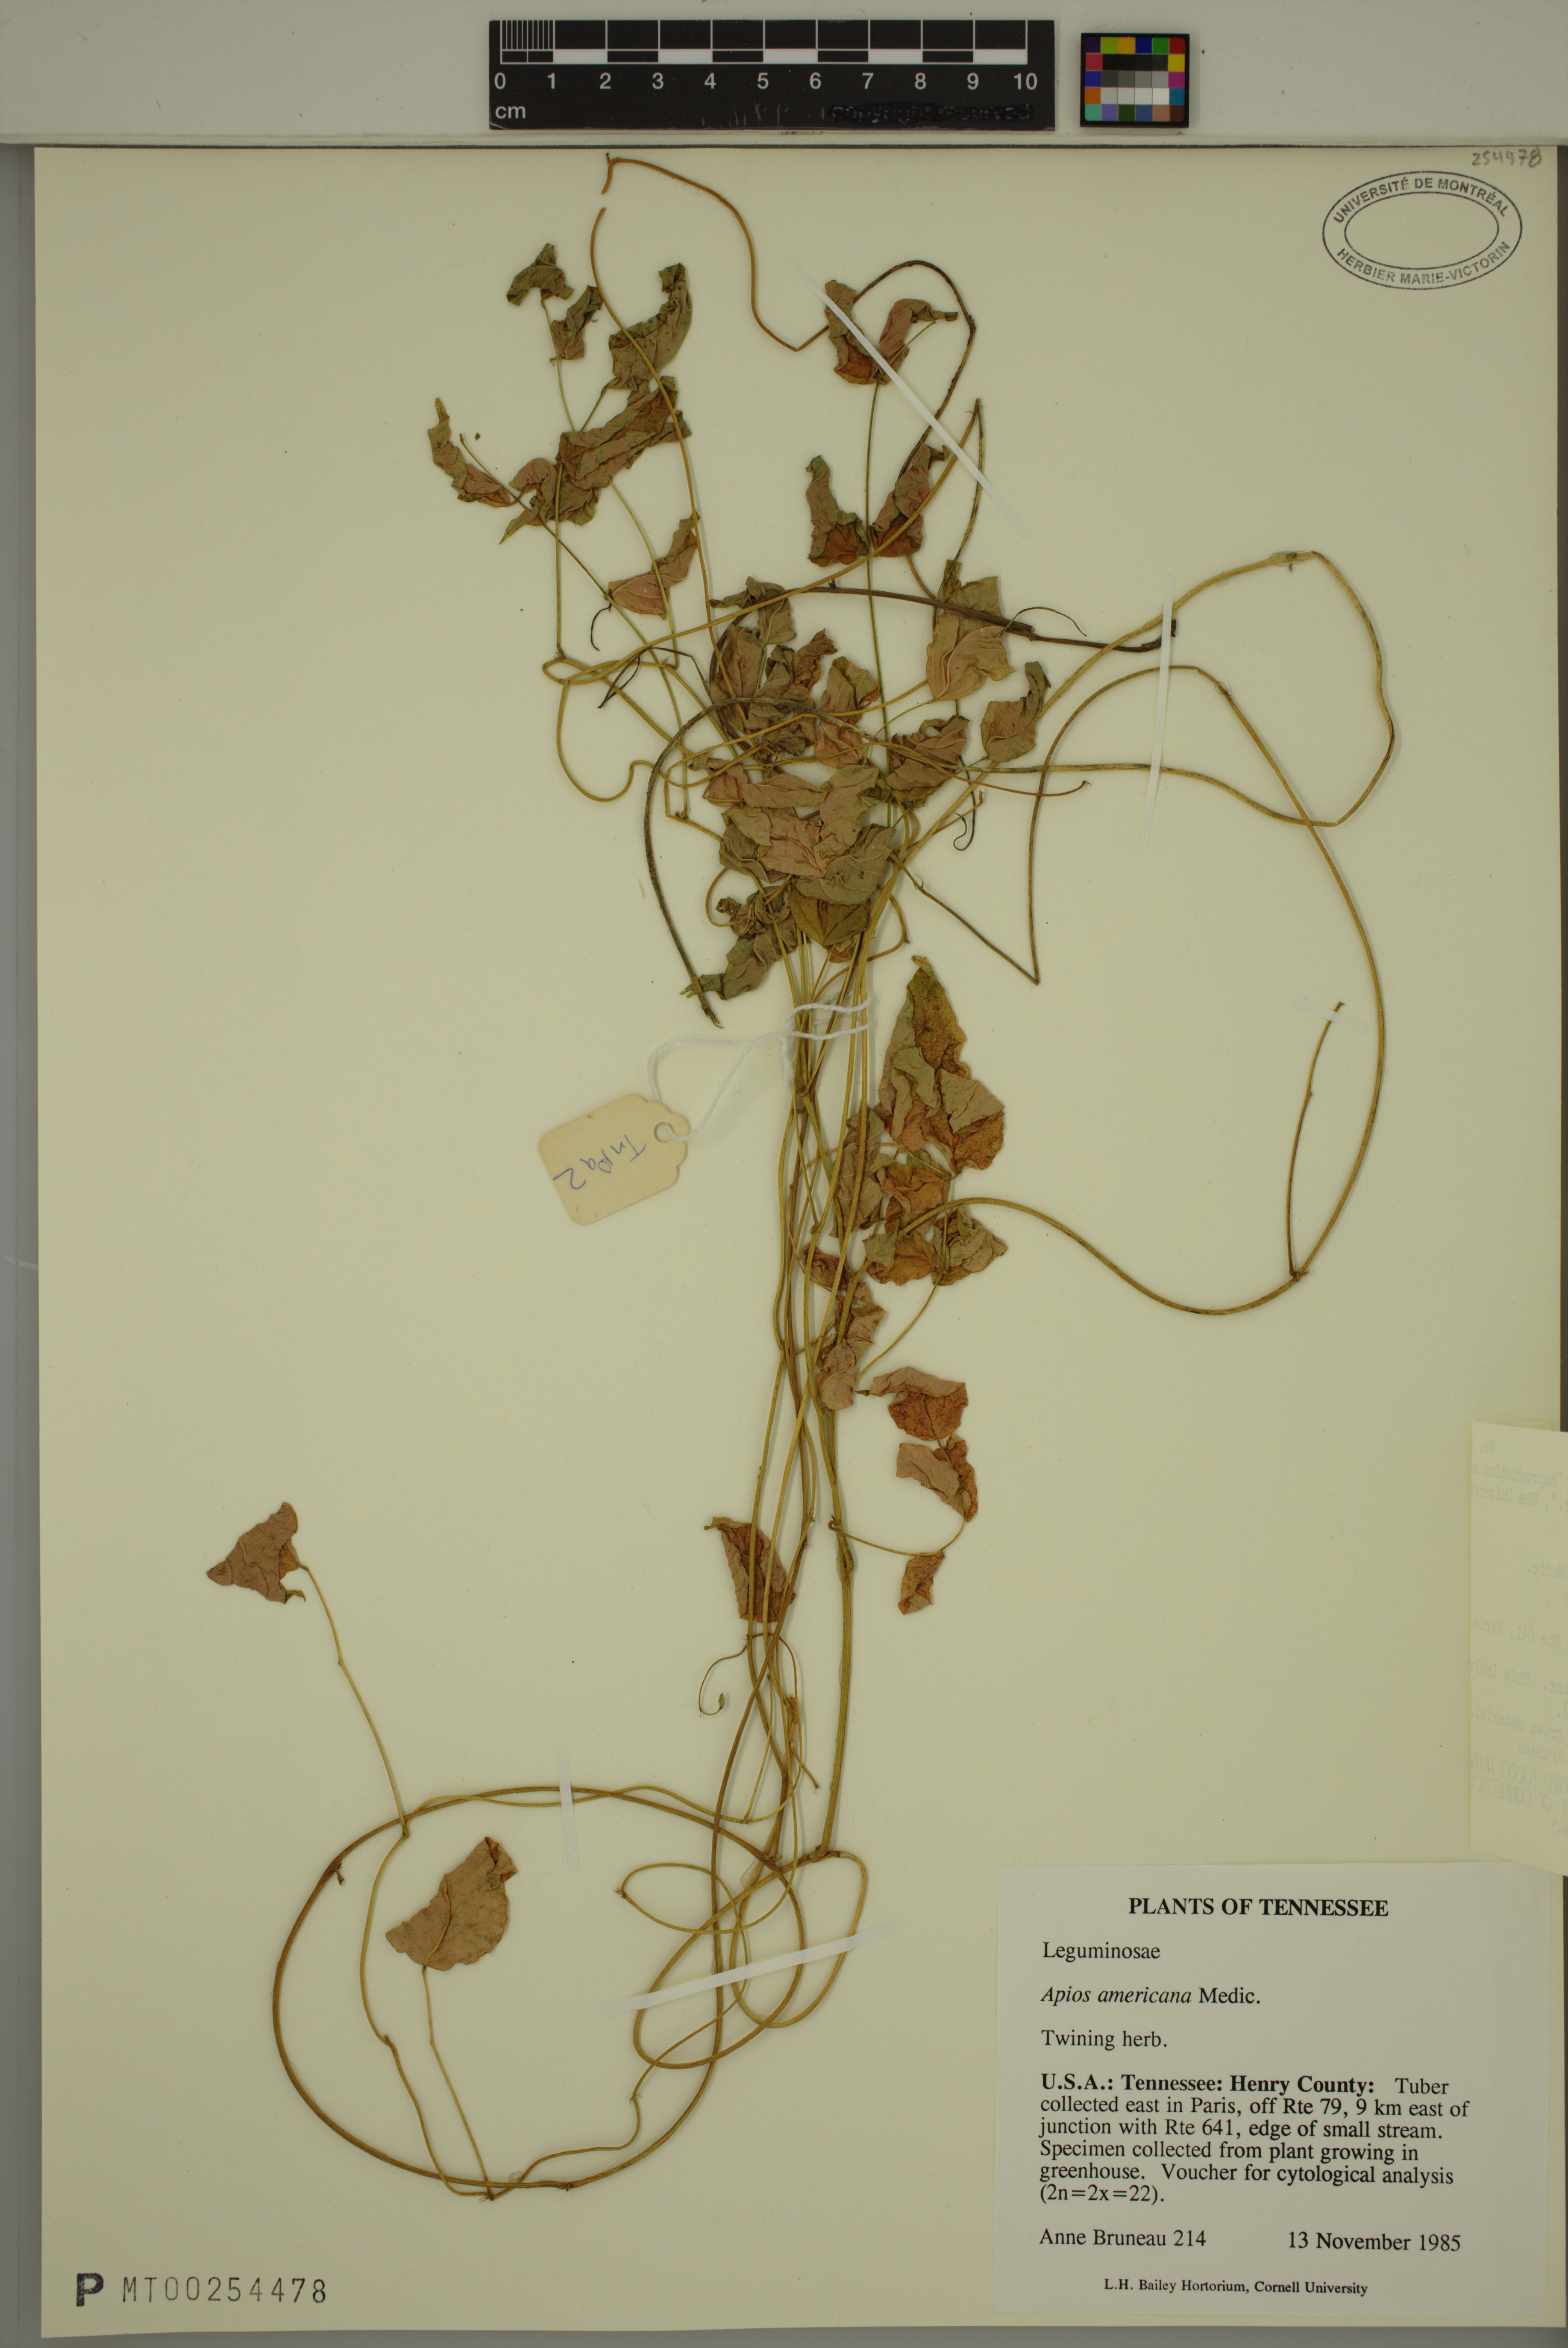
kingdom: Plantae
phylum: Tracheophyta
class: Magnoliopsida
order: Fabales
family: Fabaceae
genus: Apios
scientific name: Apios americana
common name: American potato-bean
